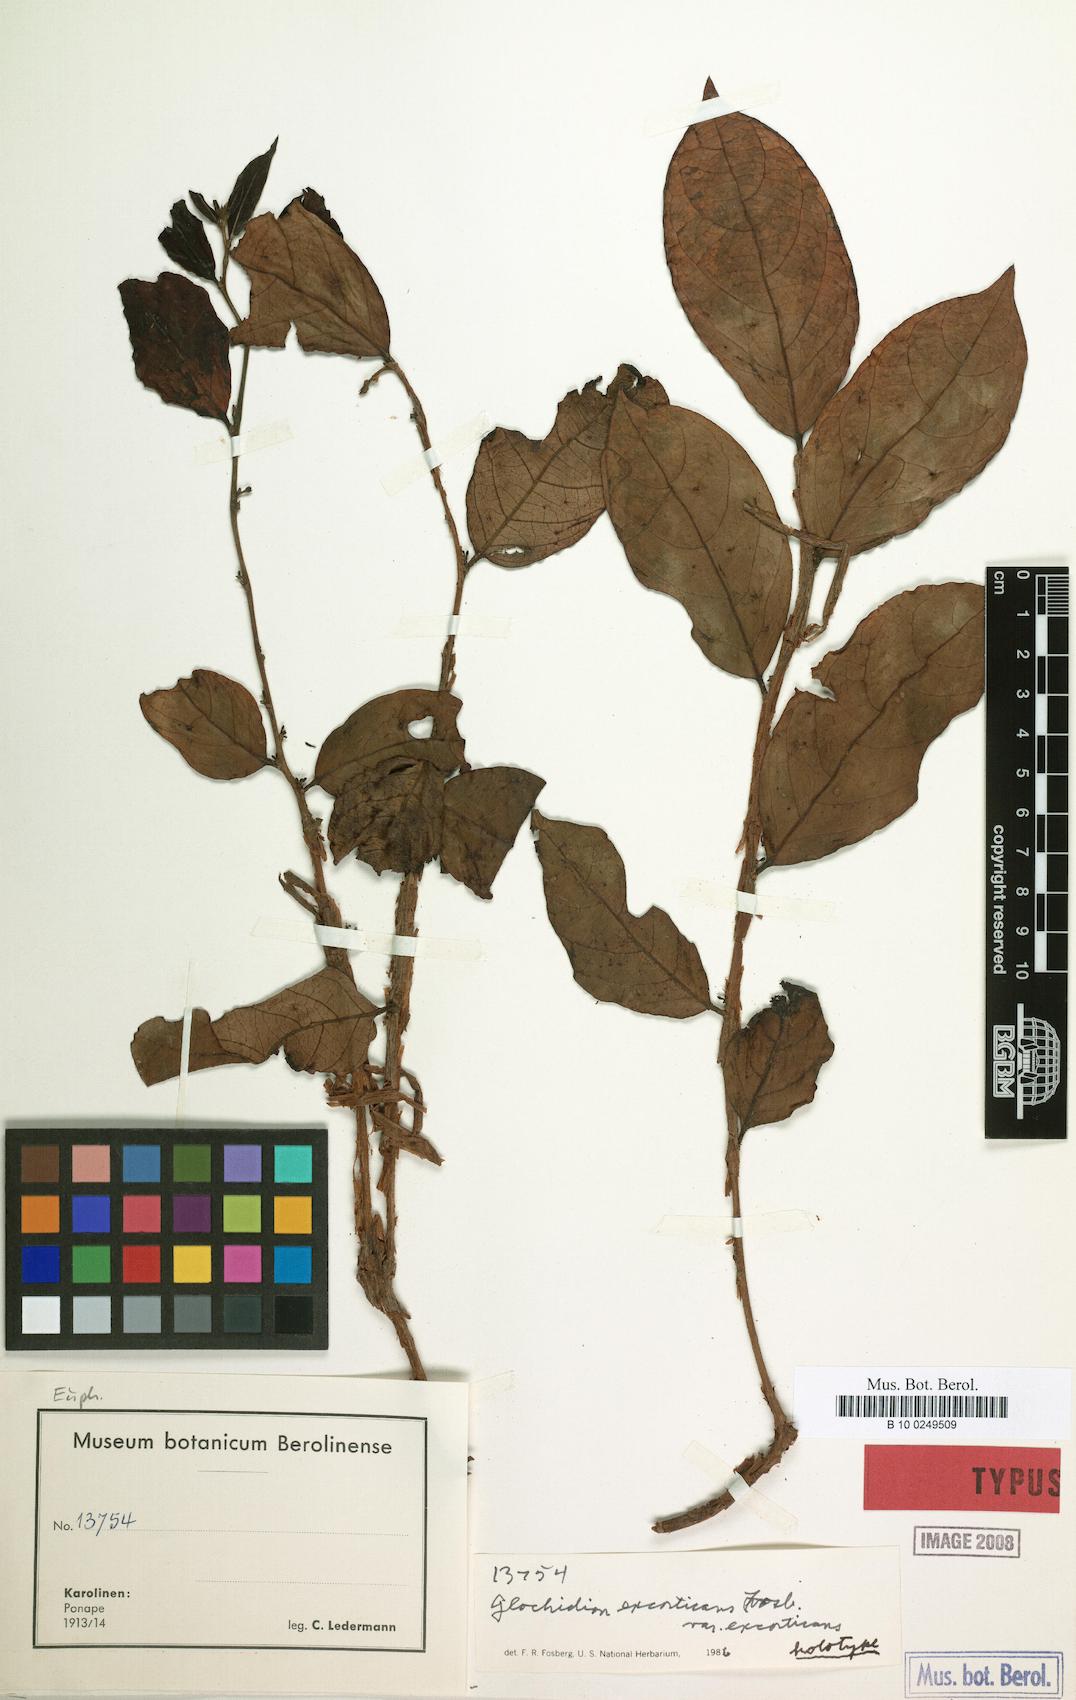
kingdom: Plantae
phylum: Tracheophyta
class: Magnoliopsida
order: Malpighiales
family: Phyllanthaceae
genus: Glochidion
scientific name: Glochidion puberulum
